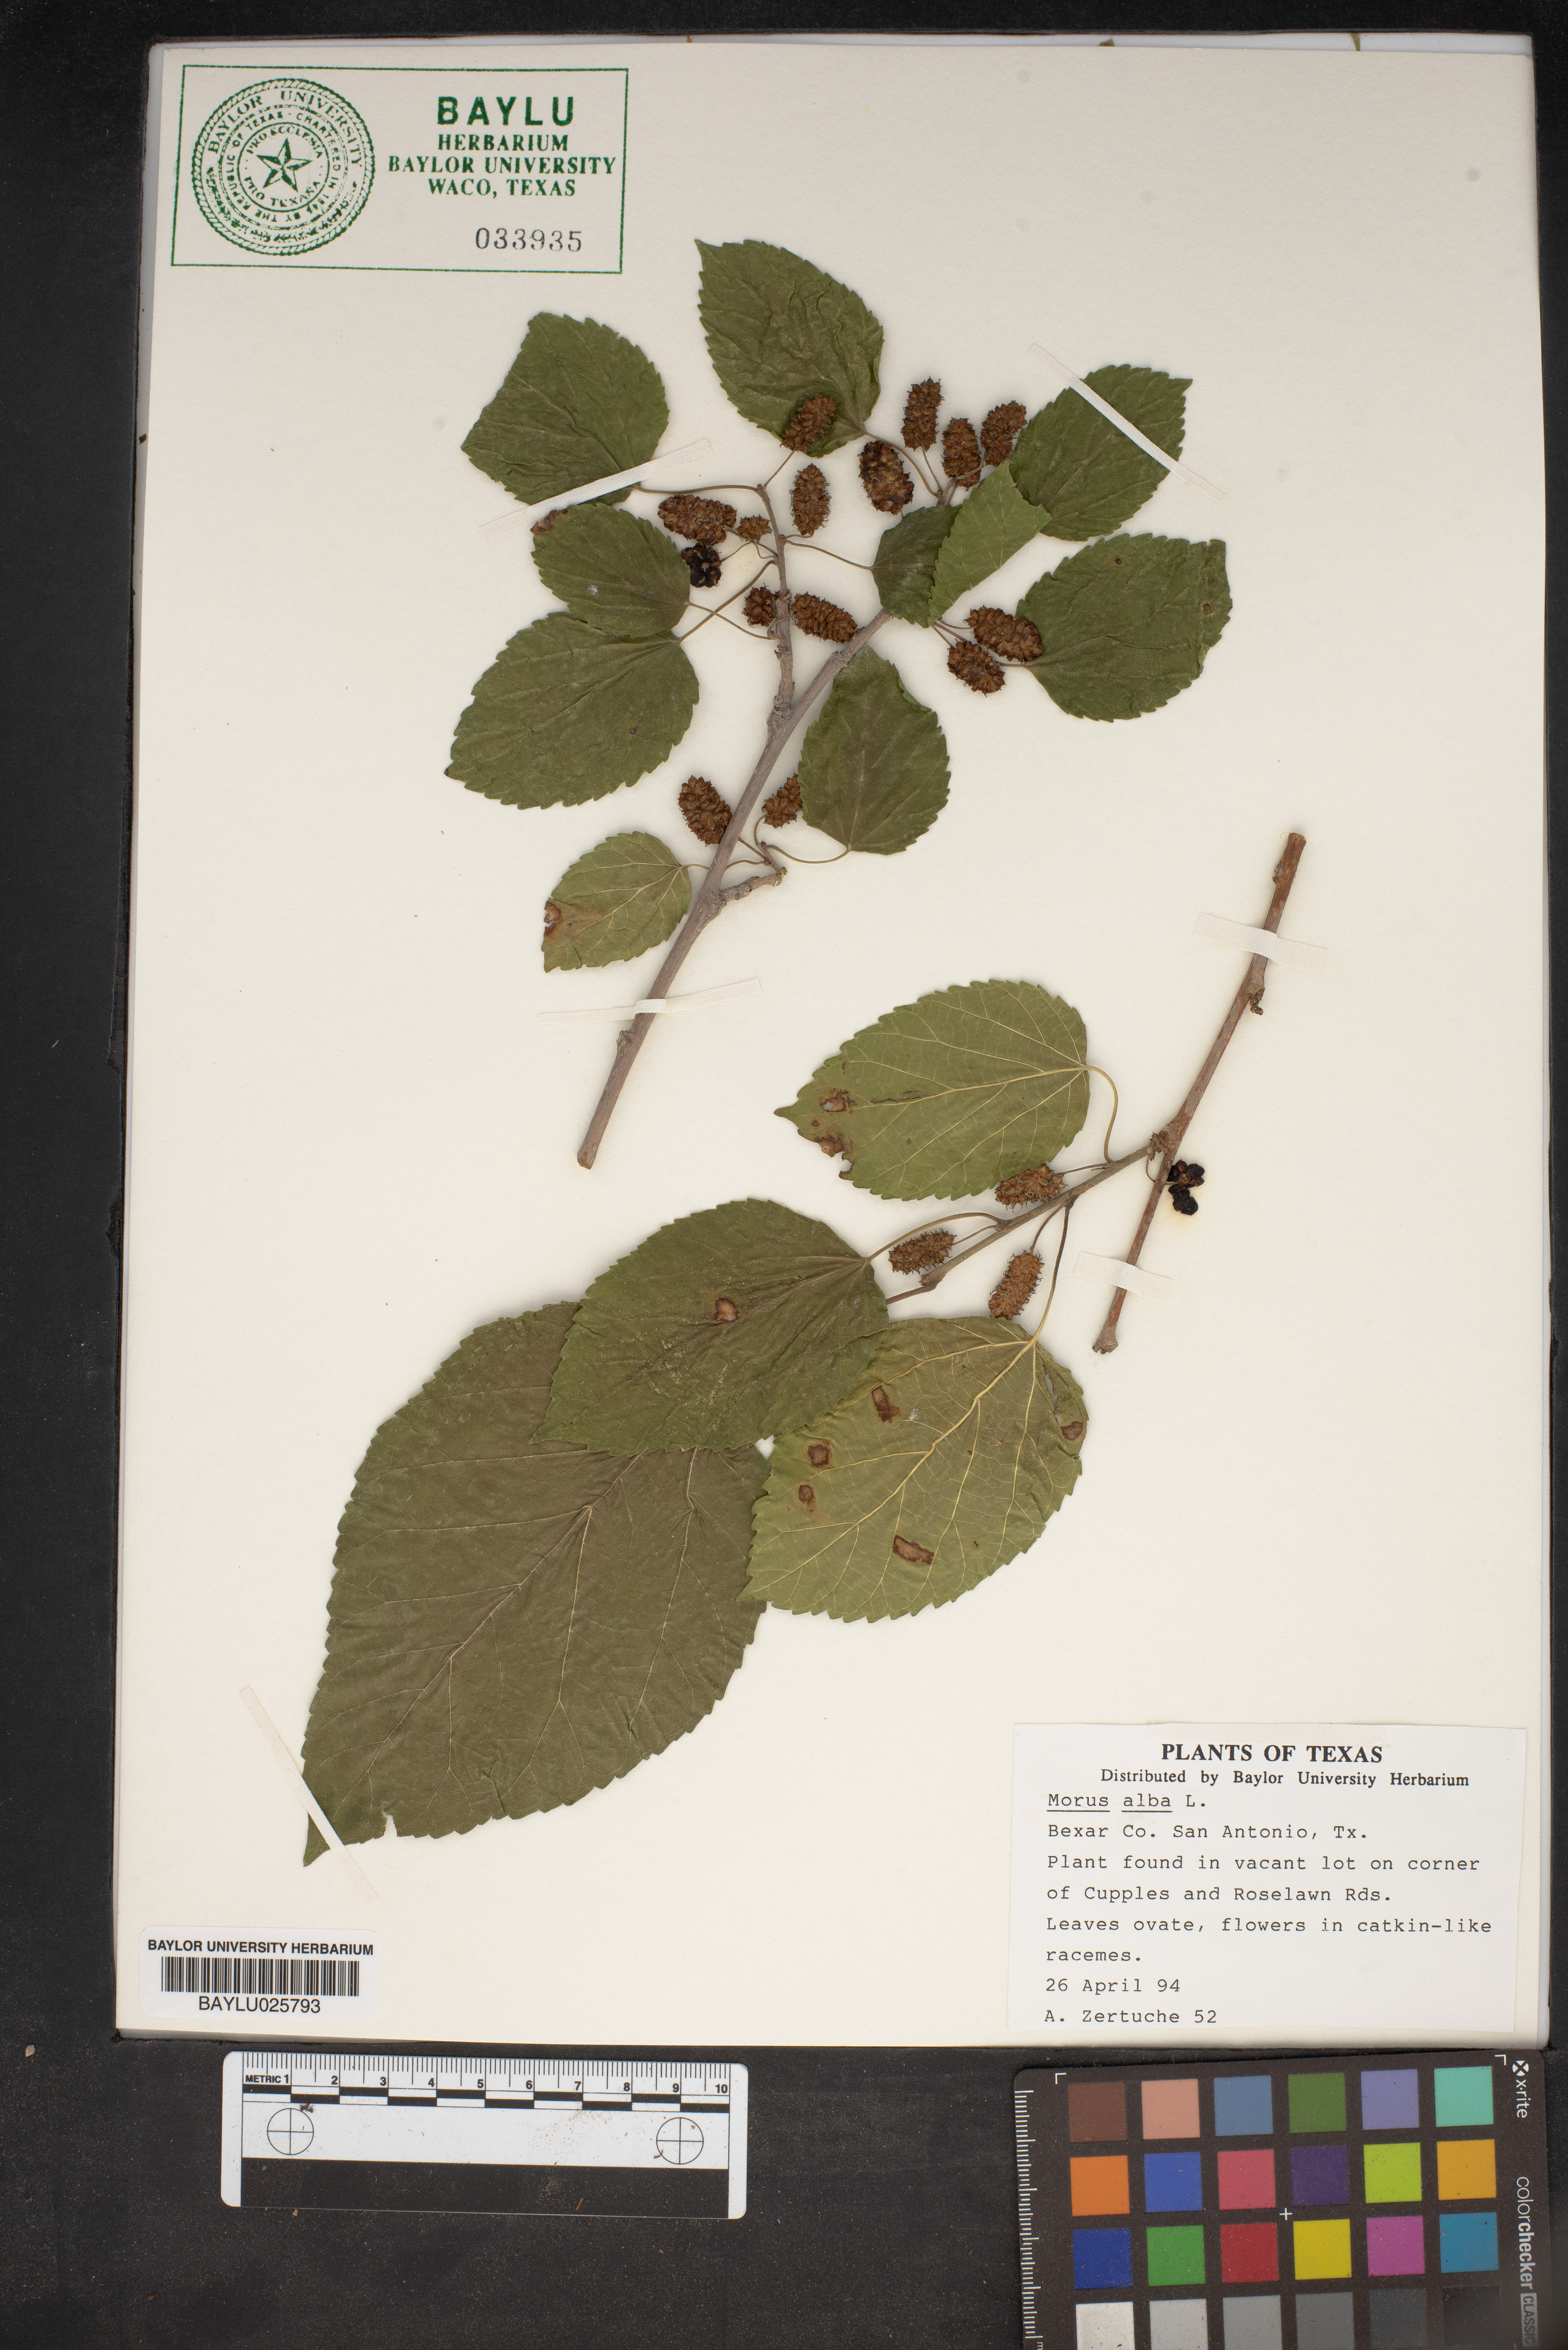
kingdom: Plantae
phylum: Tracheophyta
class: Magnoliopsida
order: Rosales
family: Moraceae
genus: Morus
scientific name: Morus alba
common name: White mulberry
